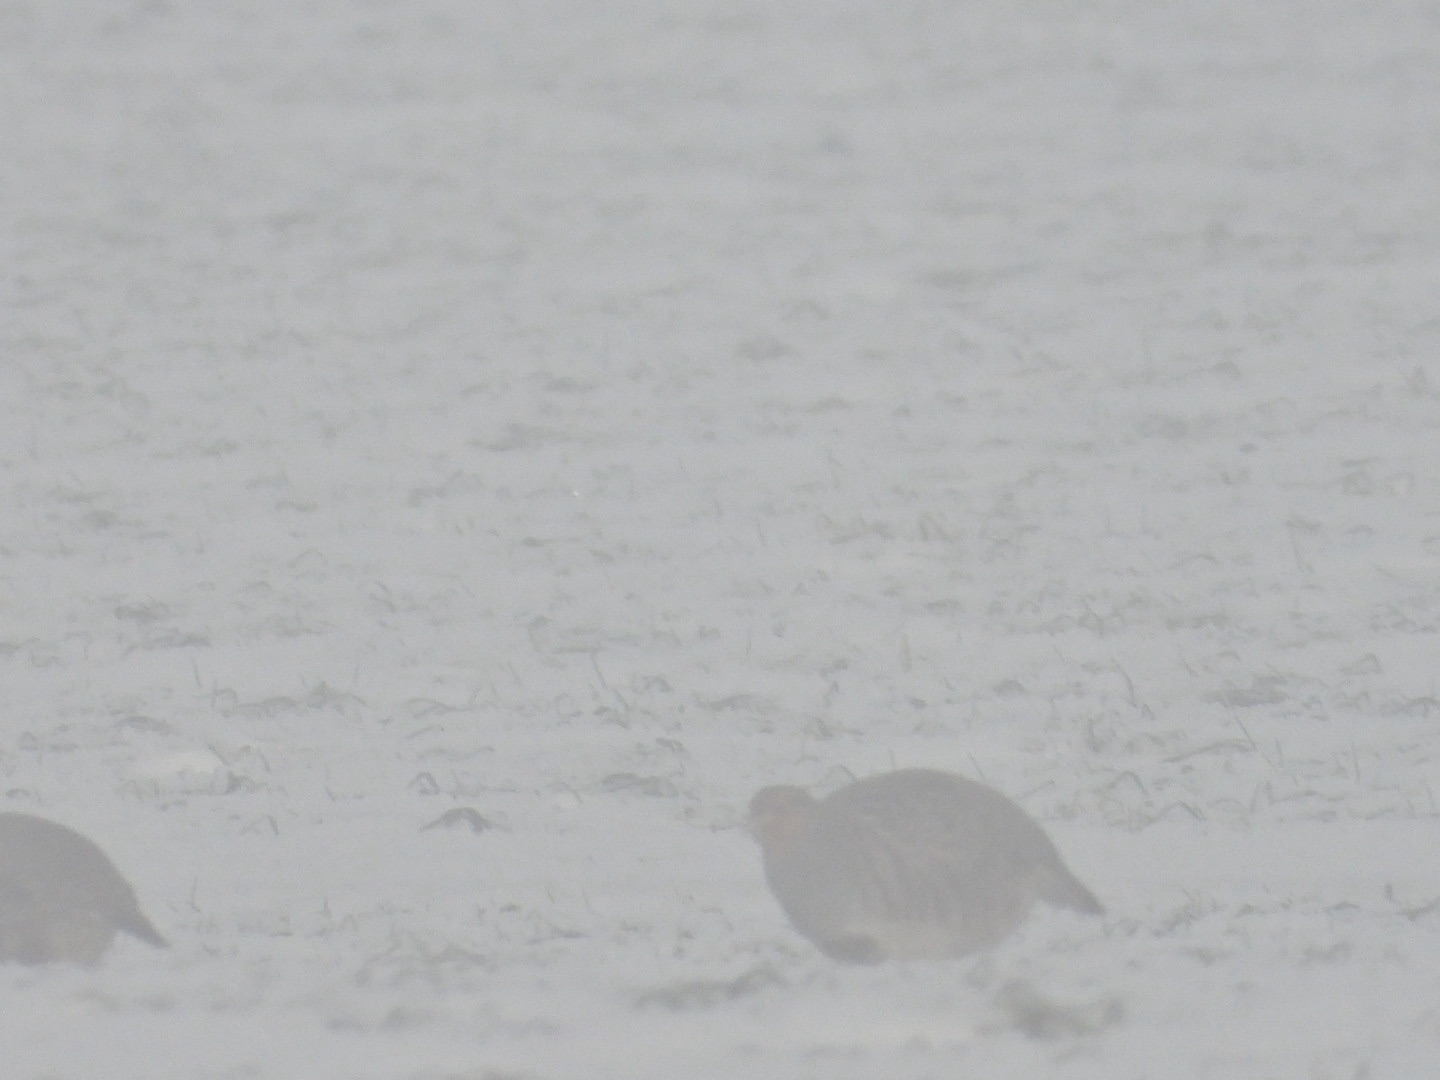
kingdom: Animalia
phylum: Chordata
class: Aves
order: Galliformes
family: Phasianidae
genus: Perdix
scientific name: Perdix perdix
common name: Agerhøne
